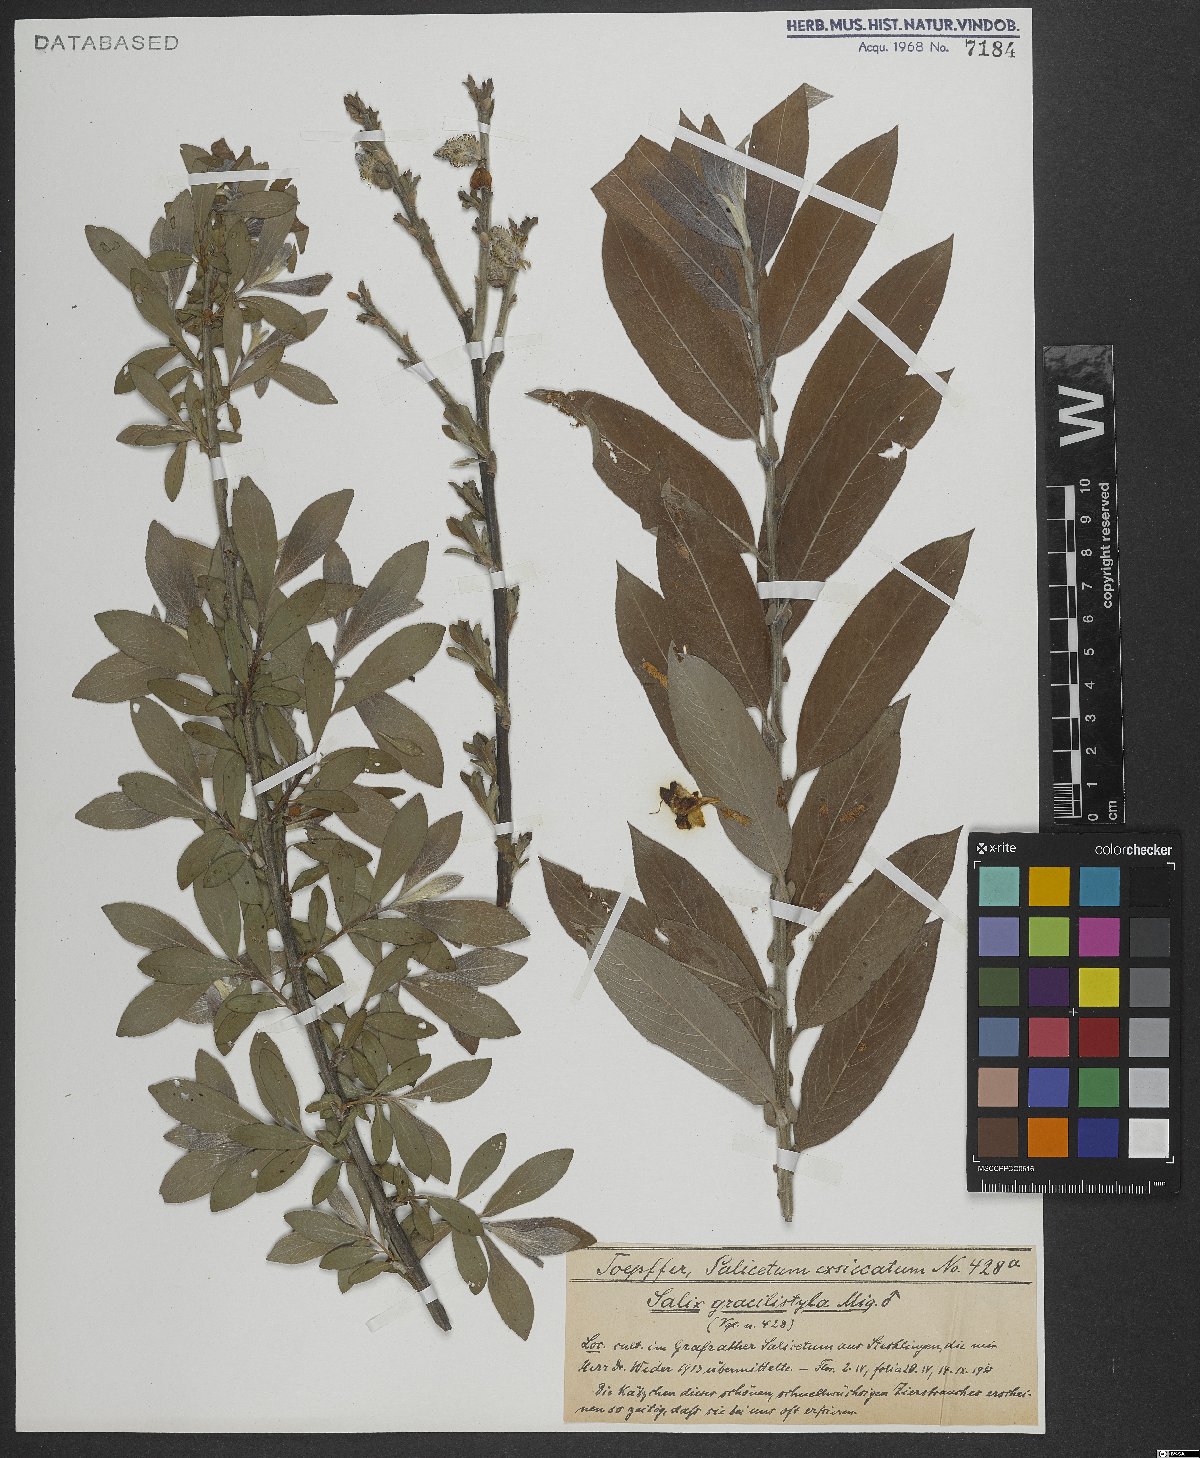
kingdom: Plantae
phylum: Tracheophyta
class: Magnoliopsida
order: Malpighiales
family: Salicaceae
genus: Salix
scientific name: Salix gracilistyla
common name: Rose-gold pussy willow
